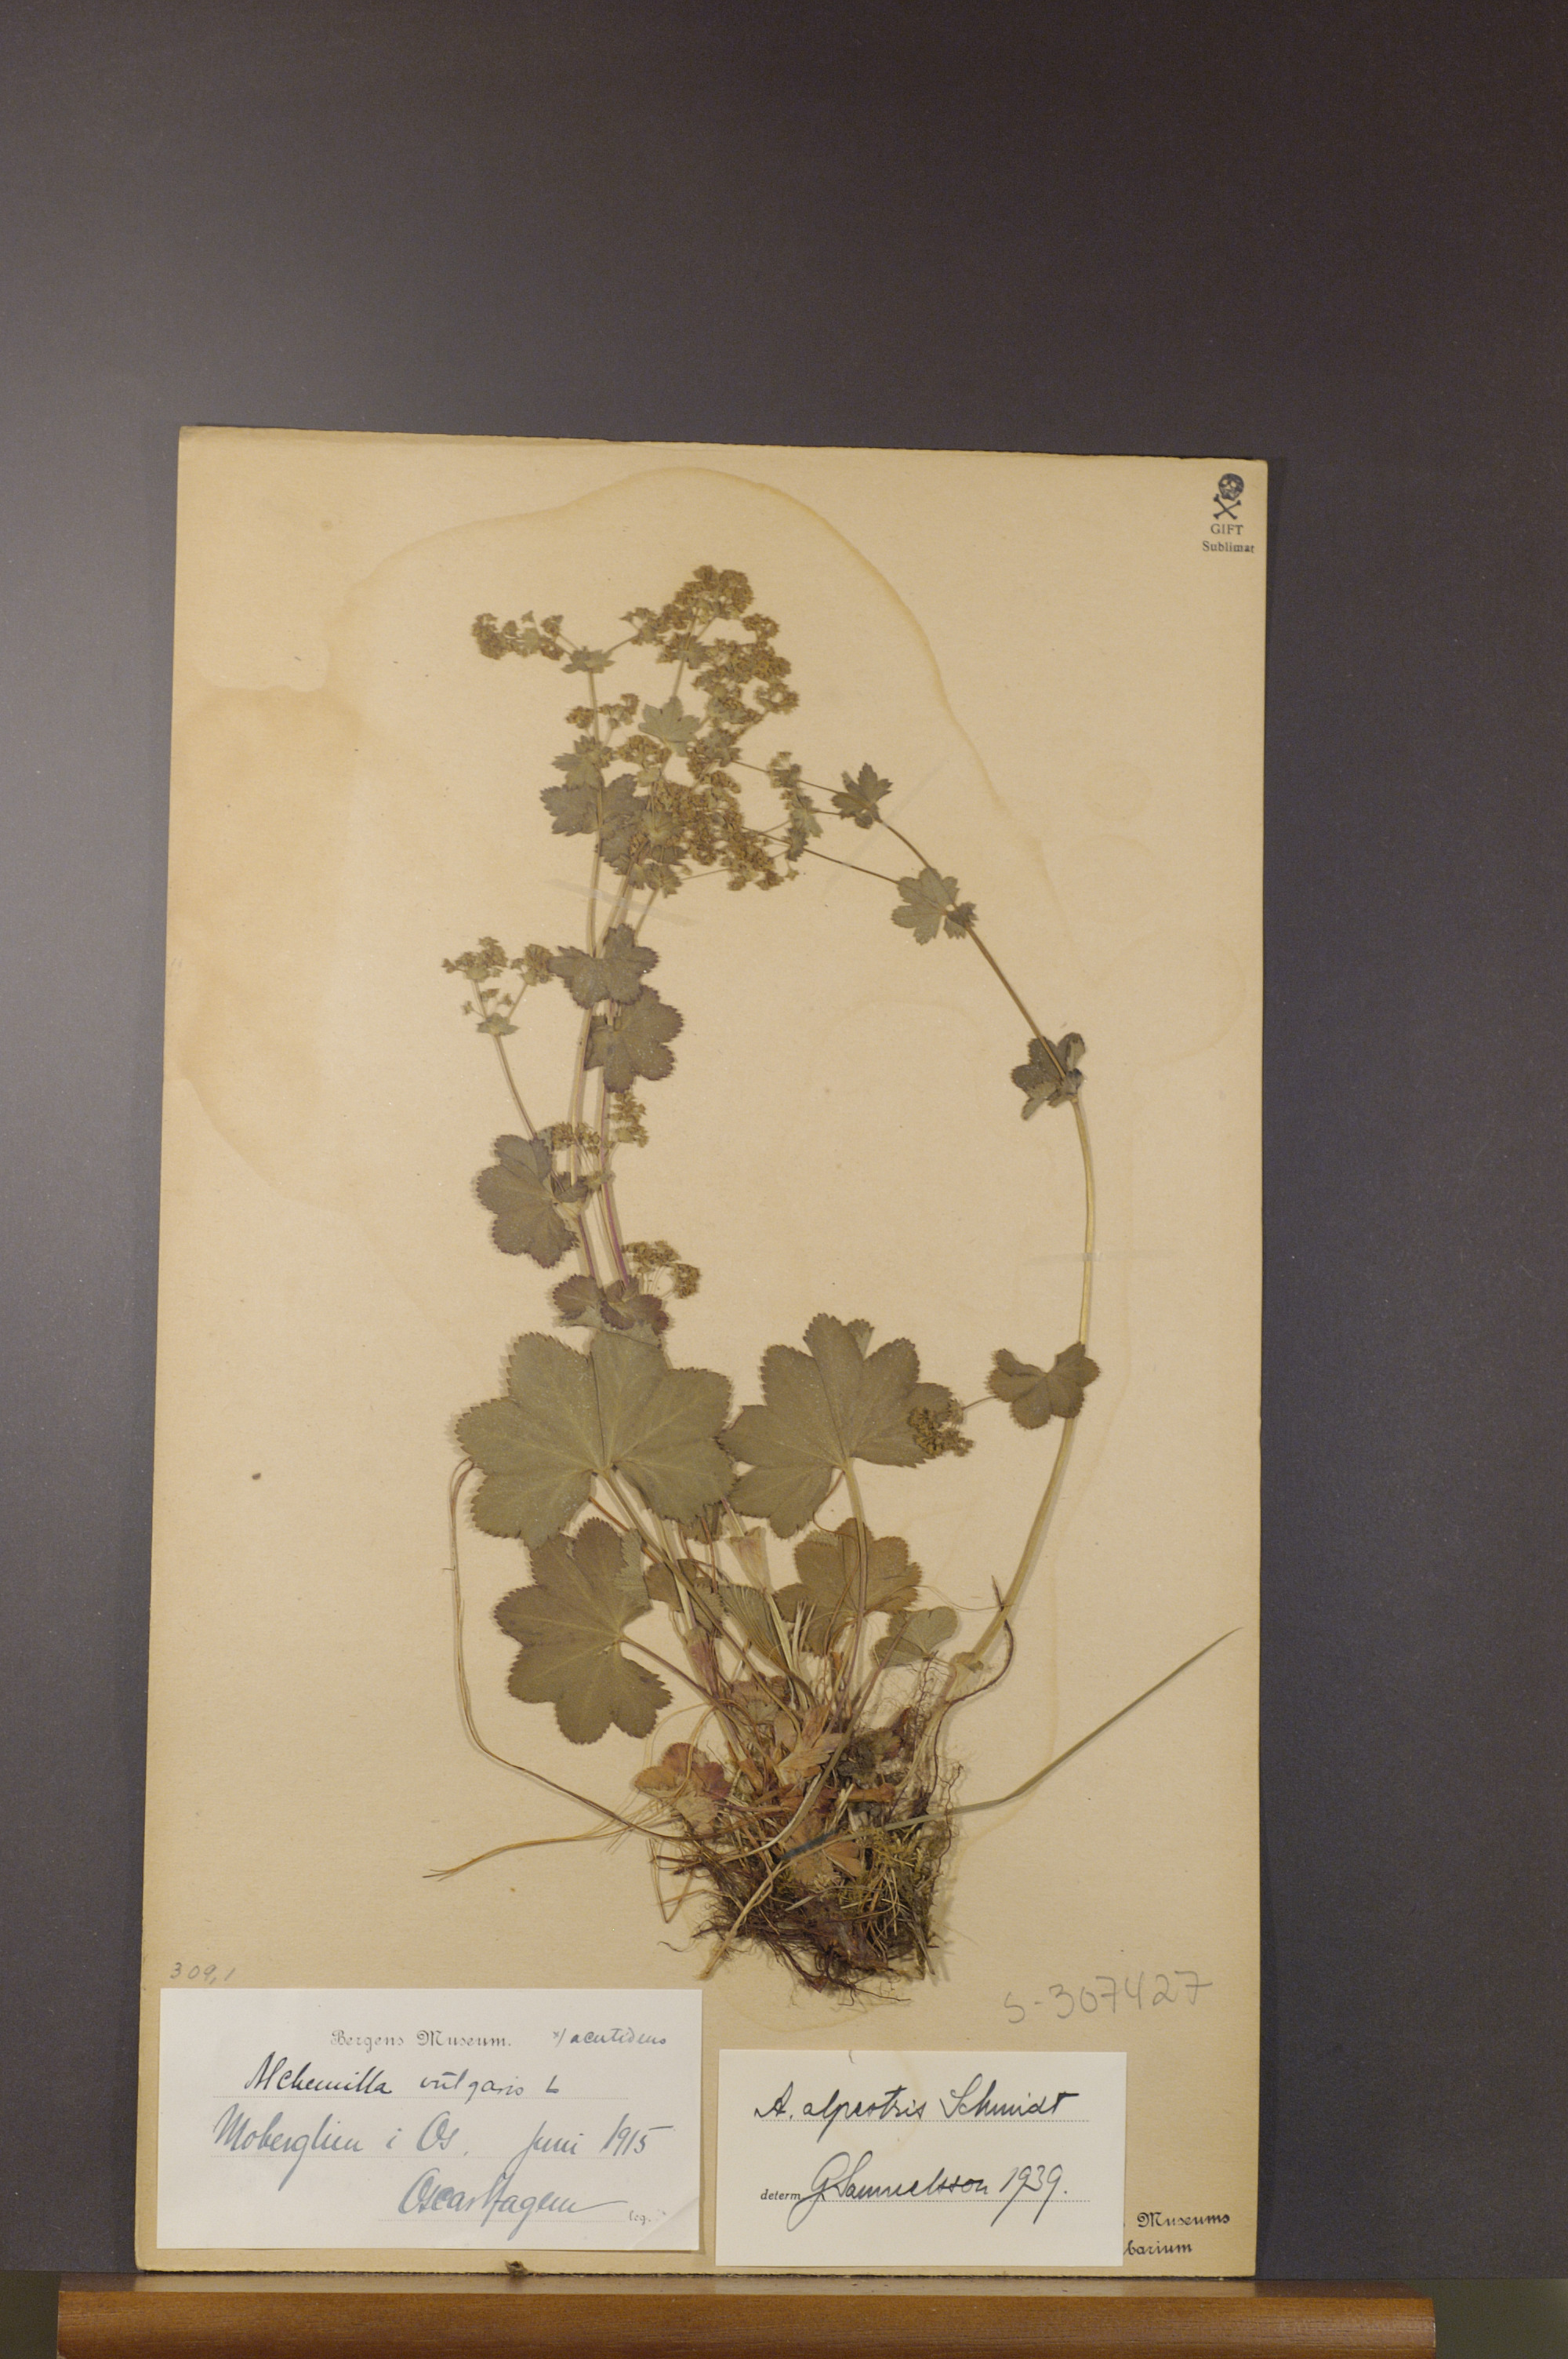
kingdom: Plantae
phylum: Tracheophyta
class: Magnoliopsida
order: Rosales
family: Rosaceae
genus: Alchemilla
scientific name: Alchemilla glabra
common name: Smooth lady's-mantle
